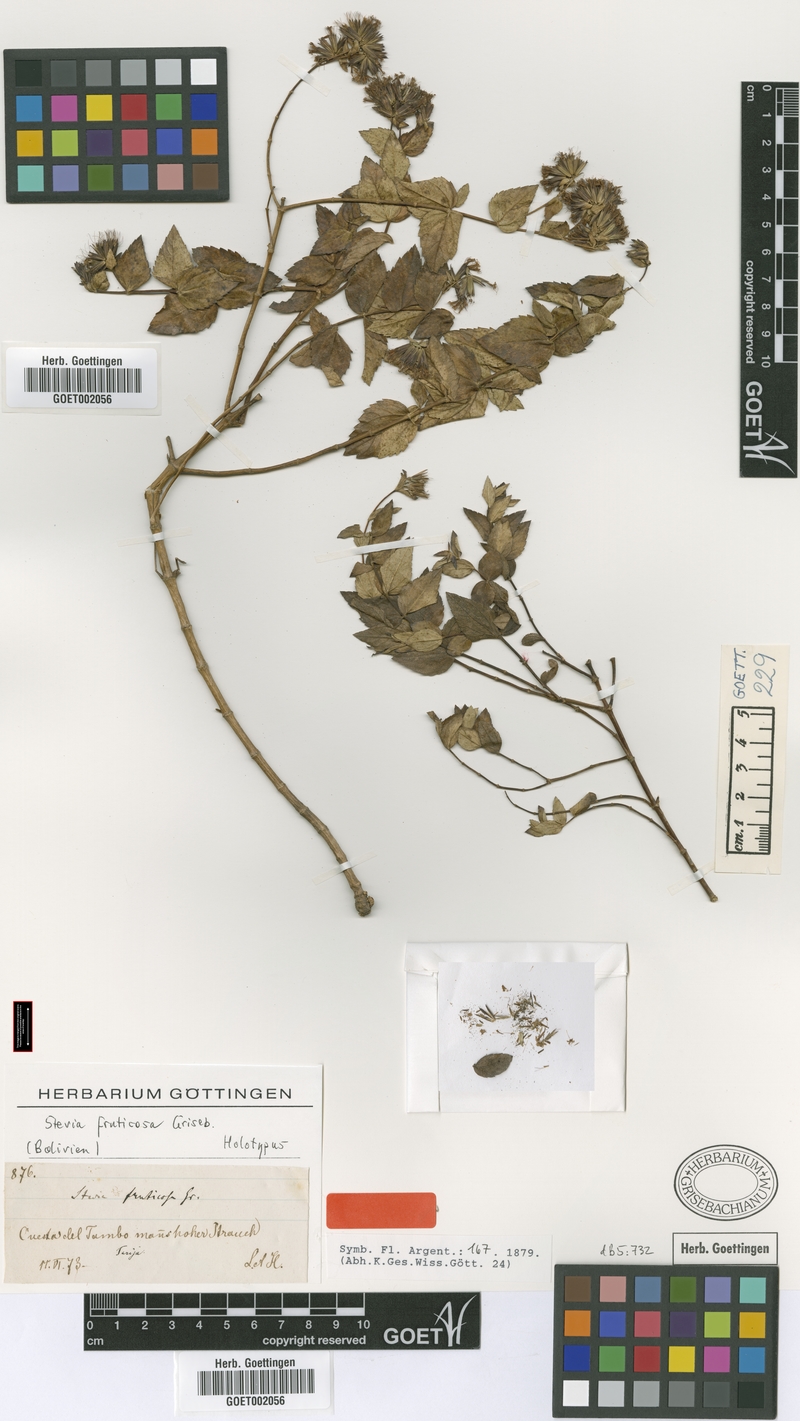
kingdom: Plantae
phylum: Tracheophyta
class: Magnoliopsida
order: Asterales
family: Asteraceae
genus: Stevia
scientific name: Stevia fruticosa
